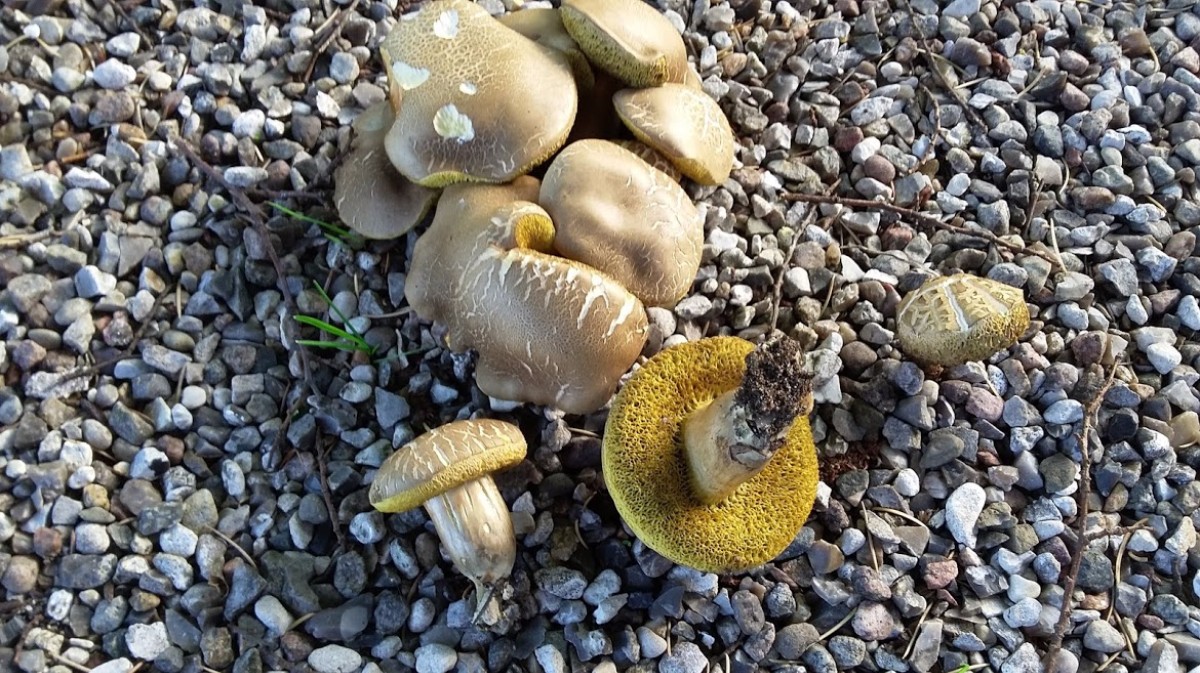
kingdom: Fungi
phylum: Basidiomycota
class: Agaricomycetes
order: Boletales
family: Boletaceae
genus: Xerocomellus
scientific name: Xerocomellus porosporus
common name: hvidsprukken rørhat
